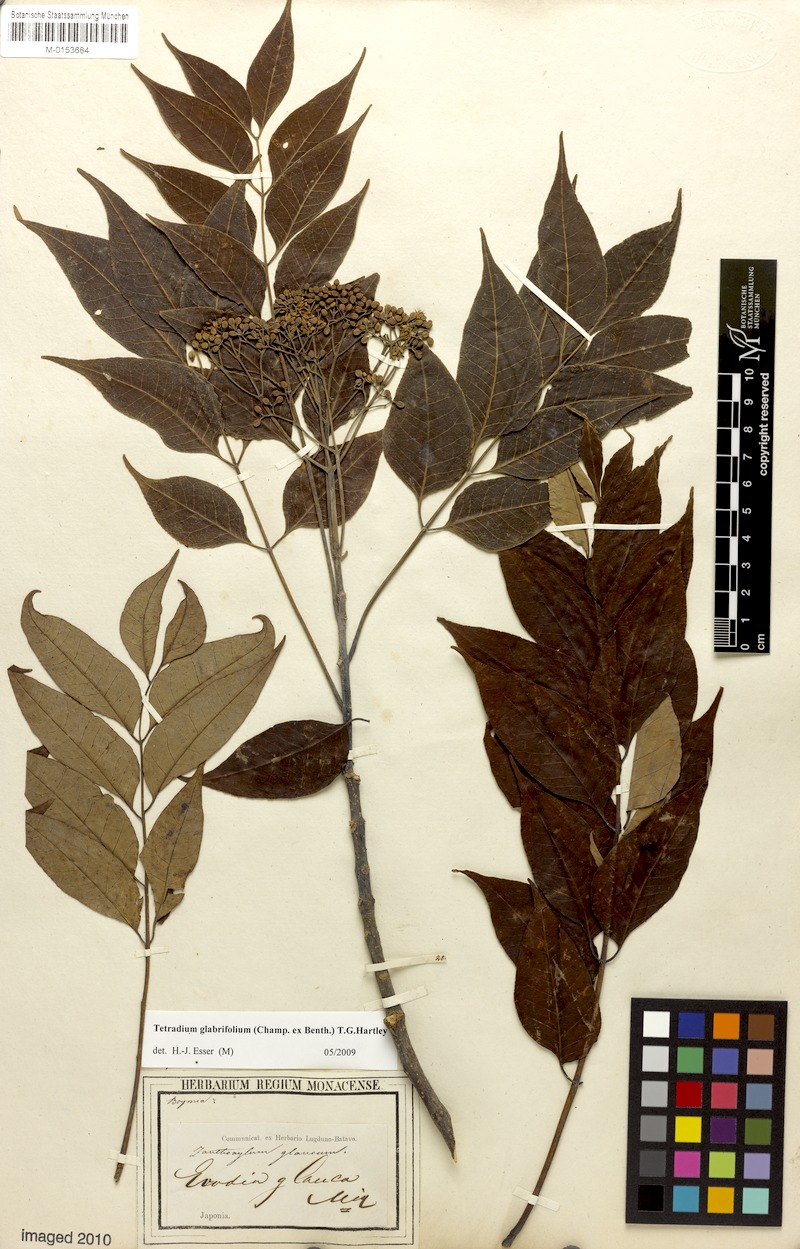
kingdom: Plantae
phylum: Tracheophyta
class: Magnoliopsida
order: Sapindales
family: Rutaceae
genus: Tetradium
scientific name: Tetradium glabrifolium
